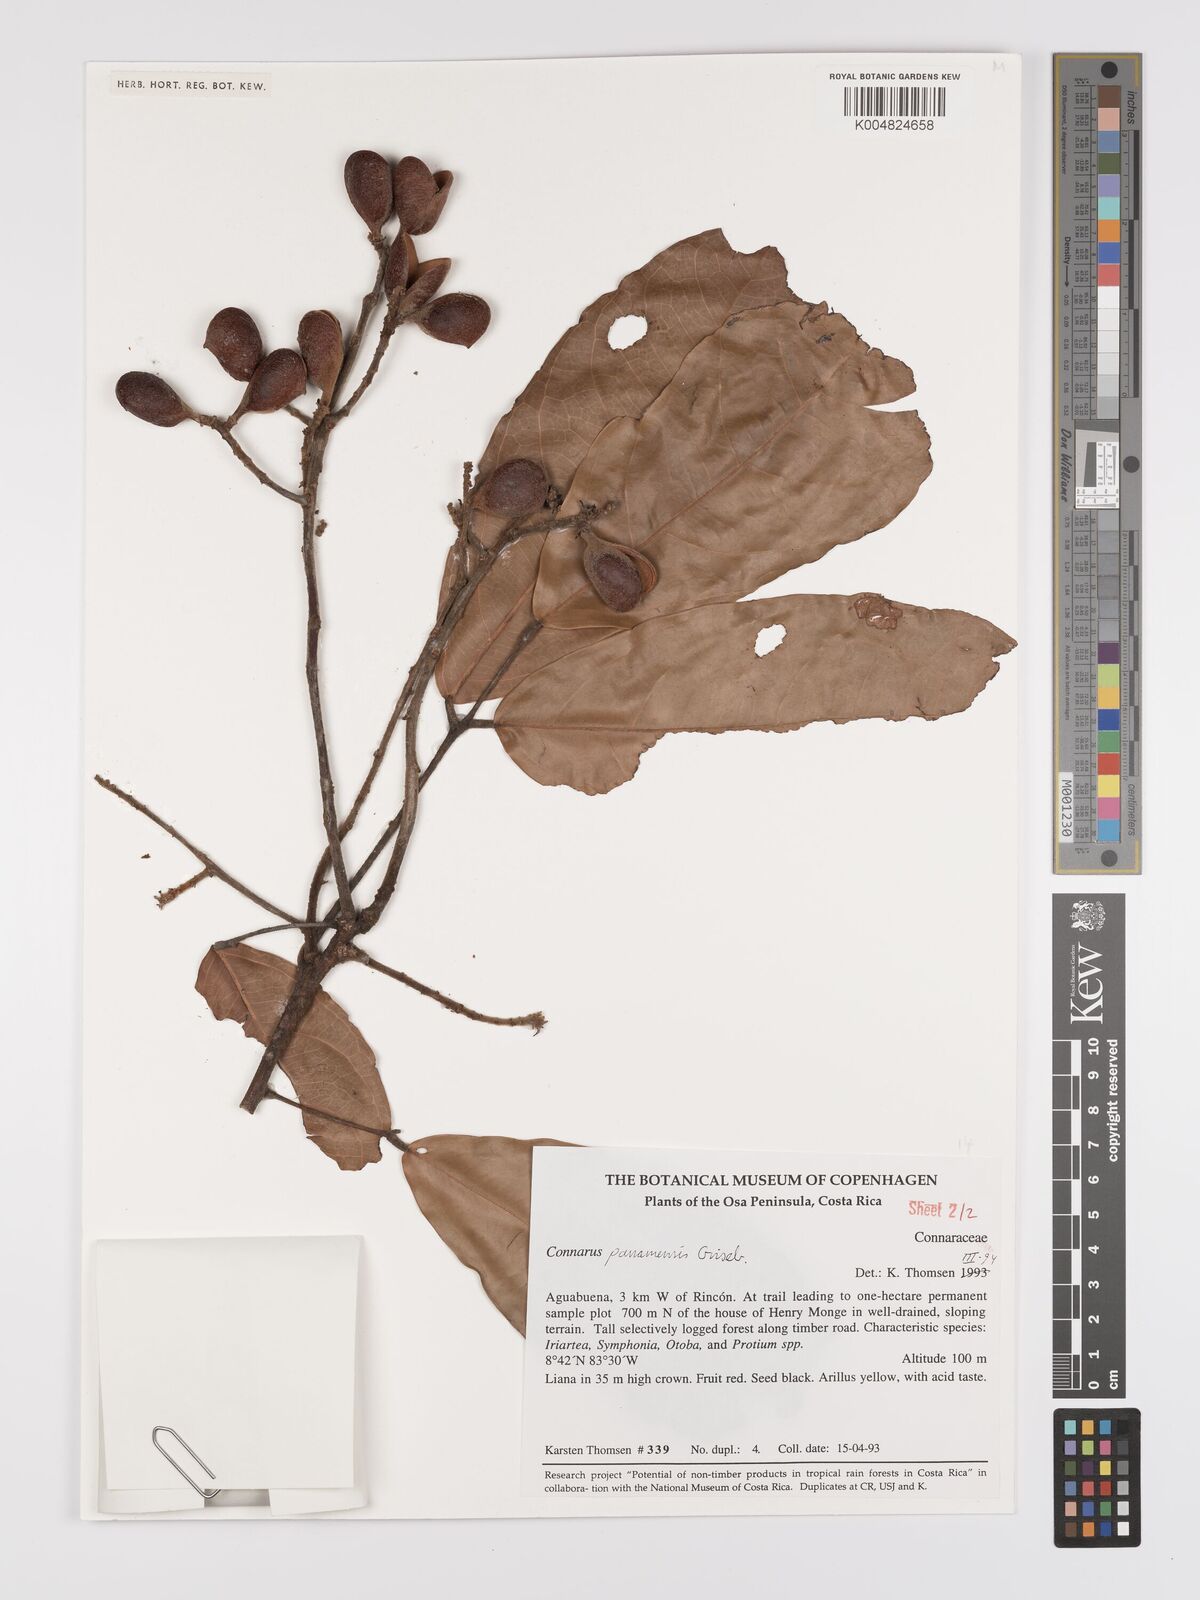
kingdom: Plantae
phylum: Tracheophyta
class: Magnoliopsida
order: Oxalidales
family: Connaraceae
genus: Connarus
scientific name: Connarus
